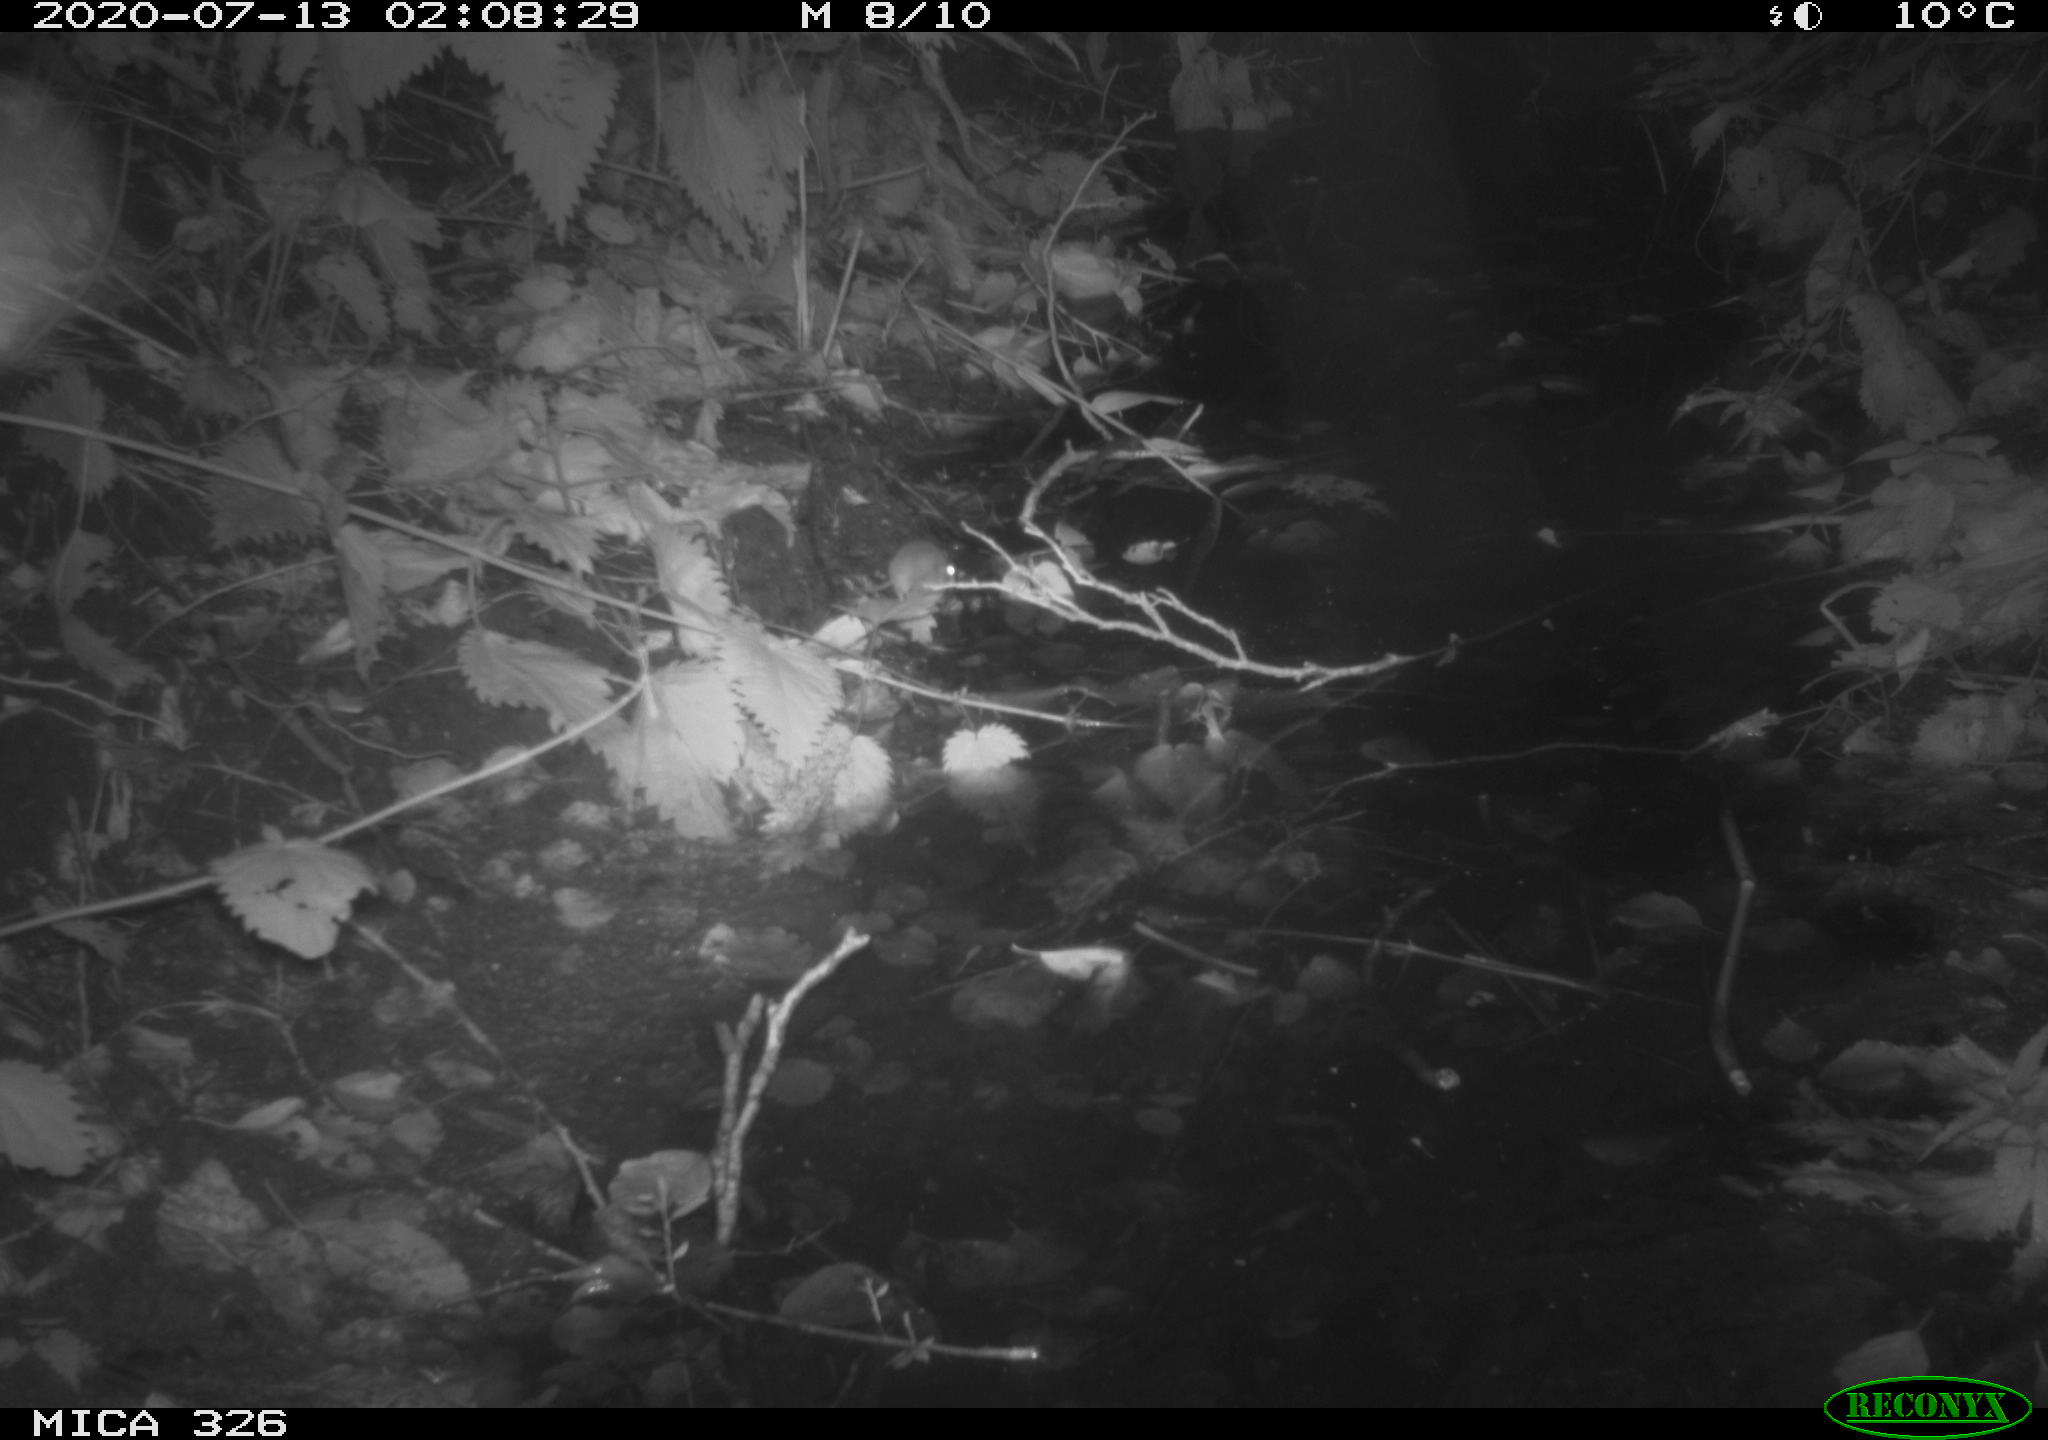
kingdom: Animalia
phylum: Chordata
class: Mammalia
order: Rodentia
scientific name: Rodentia
